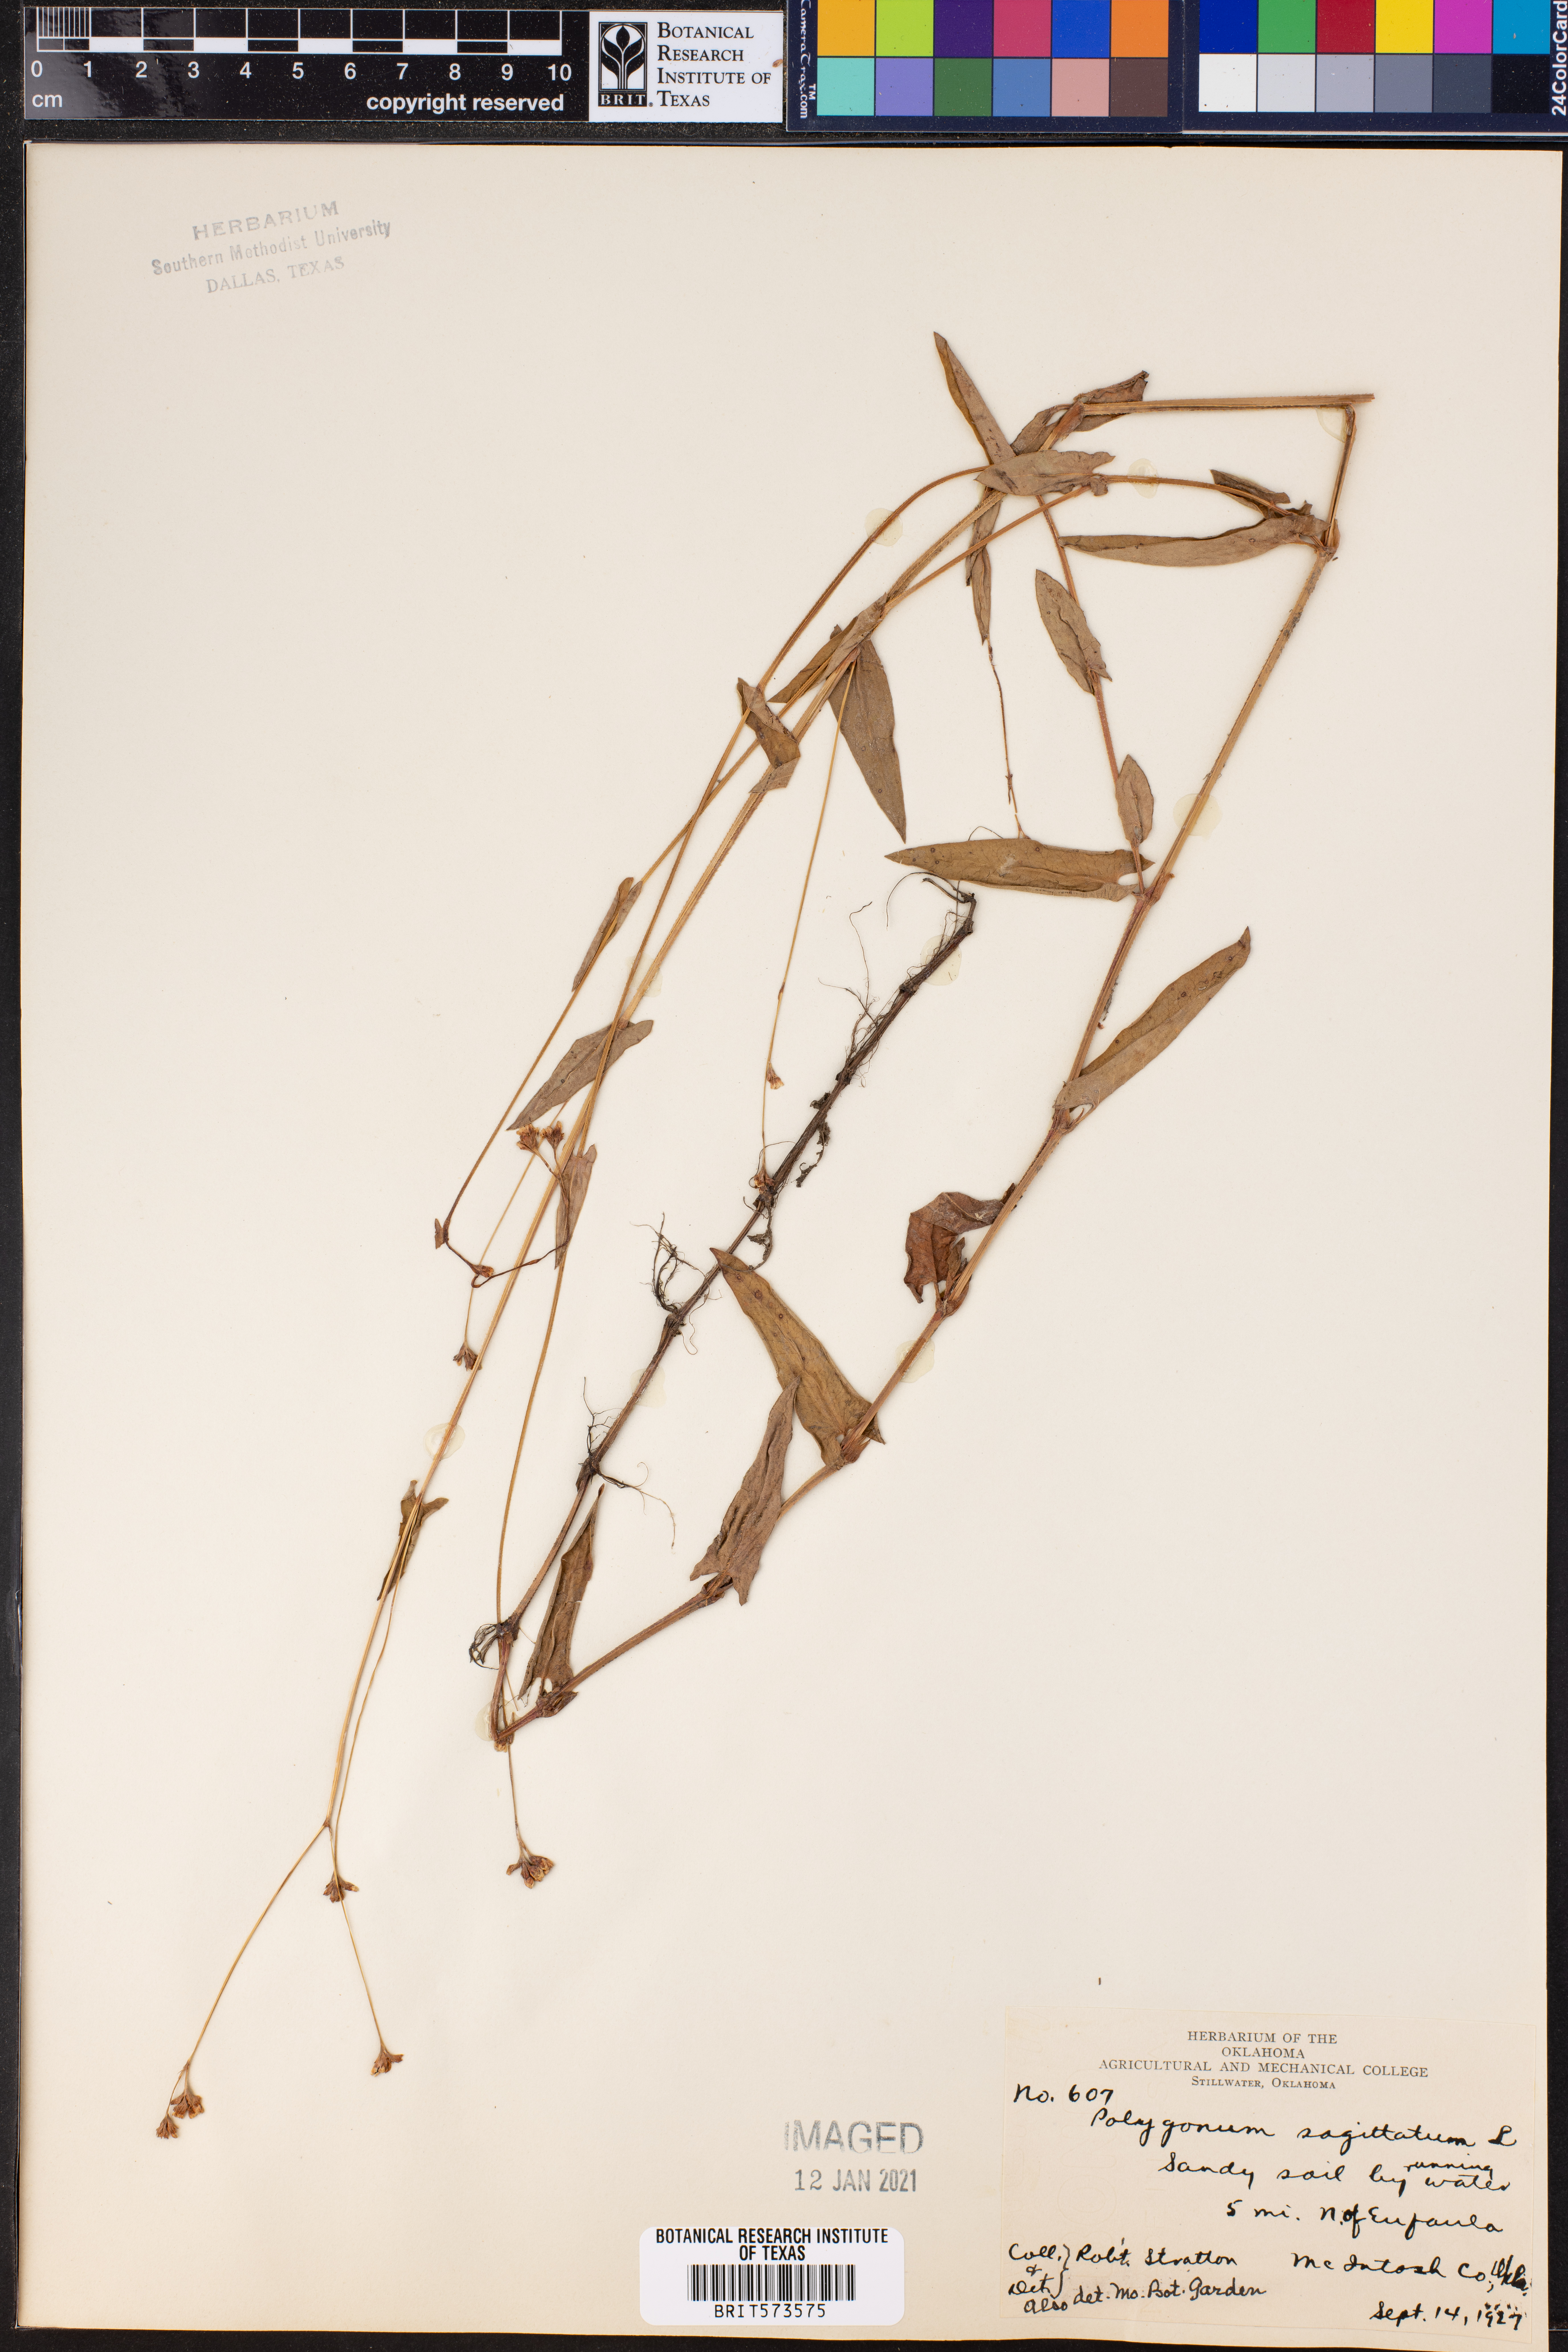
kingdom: Plantae
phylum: Tracheophyta
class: Magnoliopsida
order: Caryophyllales
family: Polygonaceae
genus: Persicaria
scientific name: Persicaria sagittata
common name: American tearthumb
